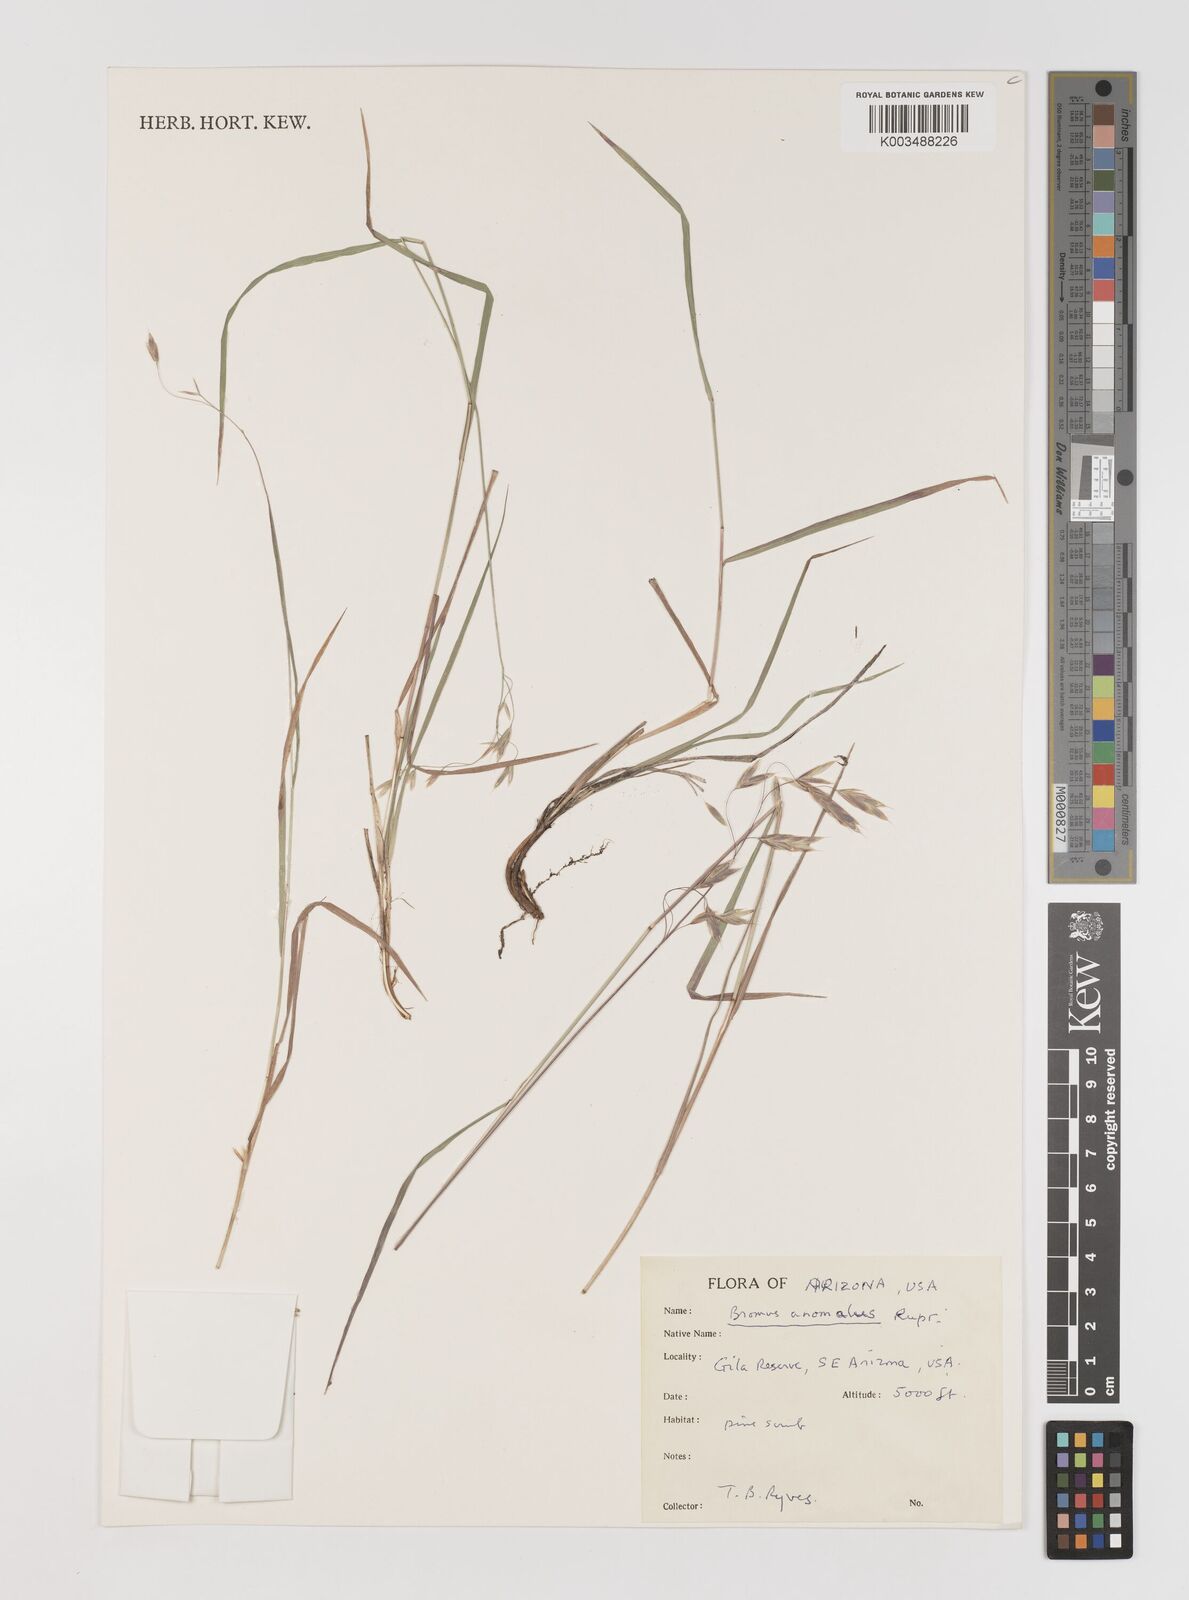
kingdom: Plantae
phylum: Tracheophyta
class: Liliopsida
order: Poales
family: Poaceae
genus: Bromus
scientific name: Bromus anomalus
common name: Nodding brome
